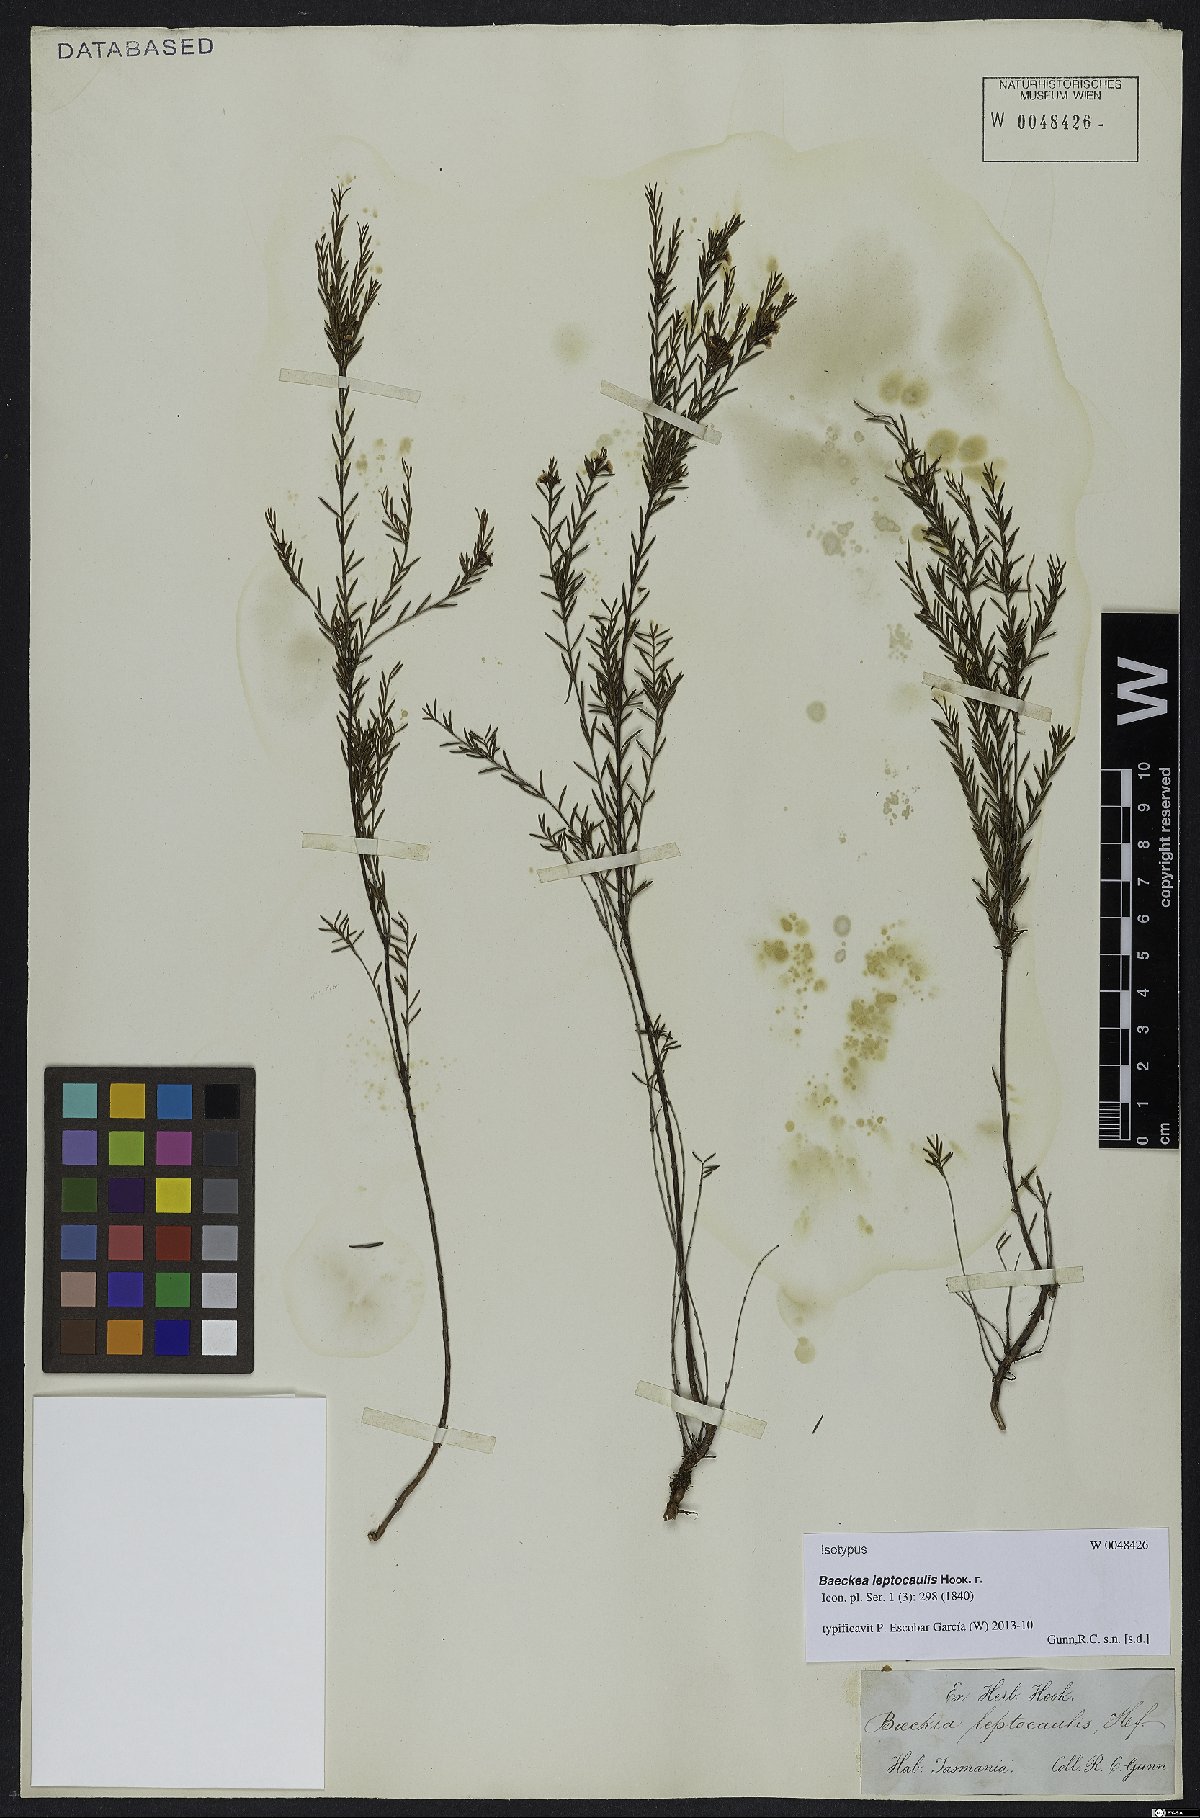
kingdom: Plantae
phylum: Tracheophyta
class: Magnoliopsida
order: Myrtales
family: Myrtaceae
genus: Baeckea
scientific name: Baeckea leptocaulis
